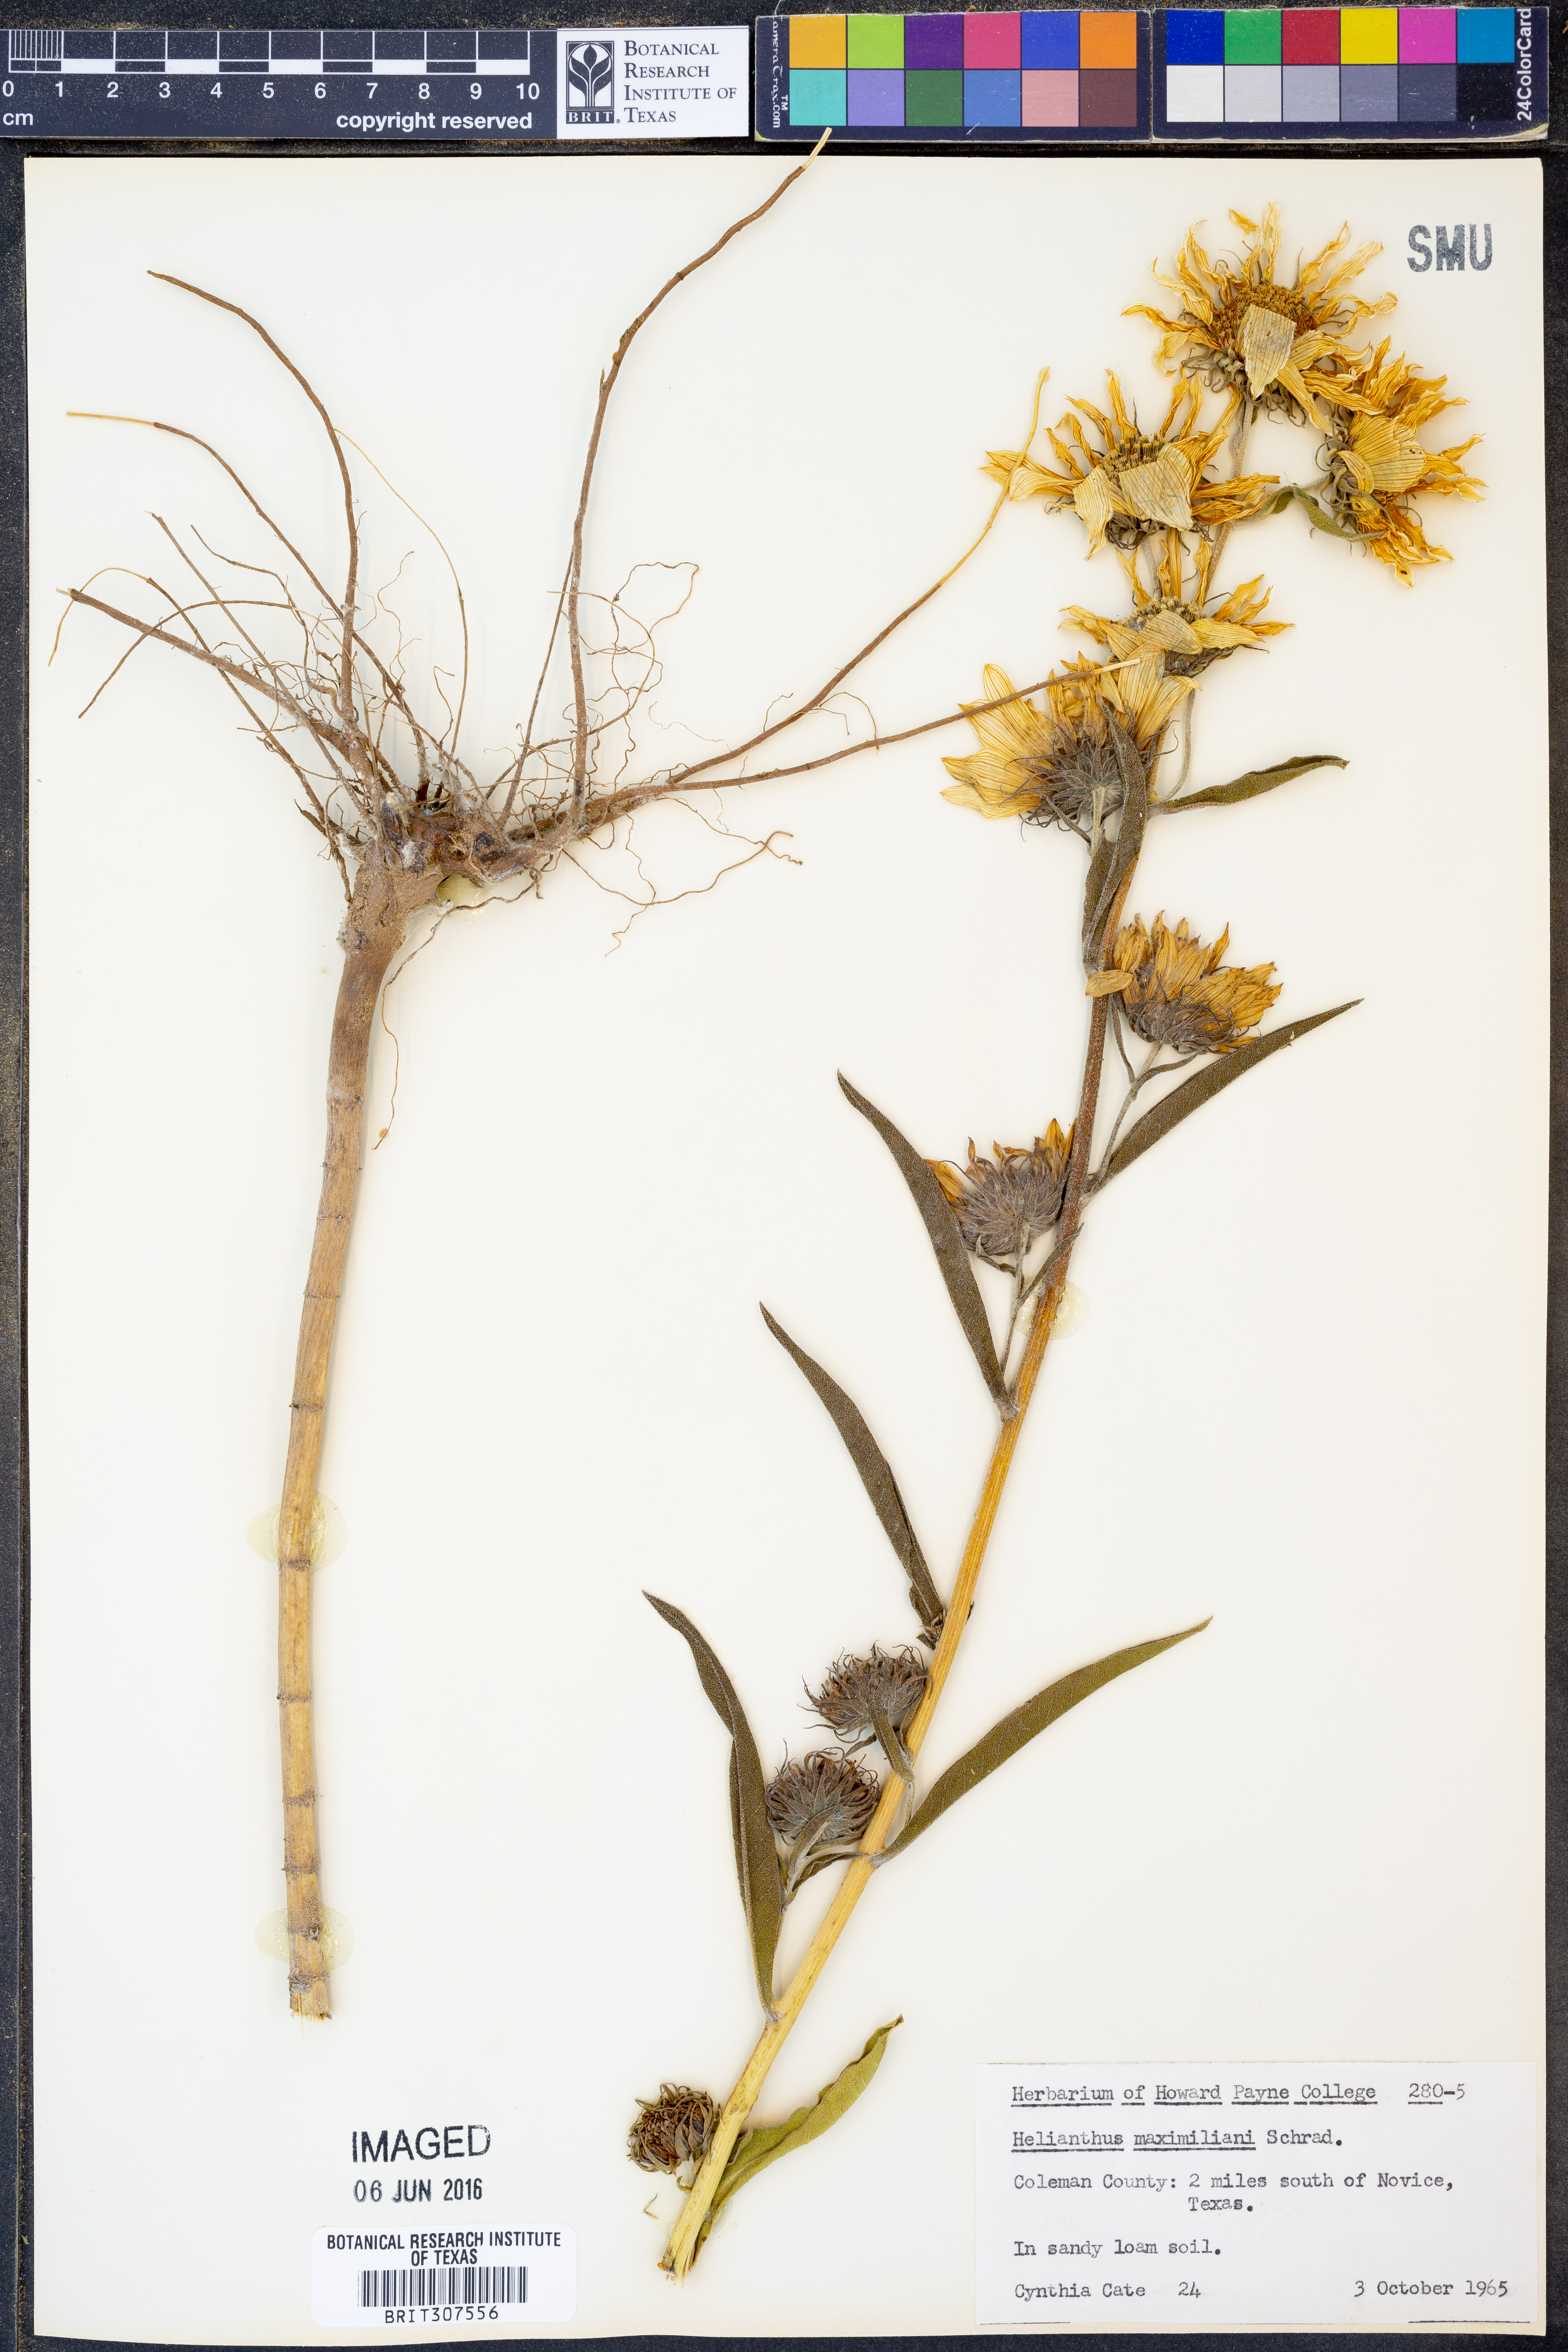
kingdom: Plantae
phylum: Tracheophyta
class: Magnoliopsida
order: Asterales
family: Asteraceae
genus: Helianthus
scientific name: Helianthus maximiliani
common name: Maximilian's sunflower
